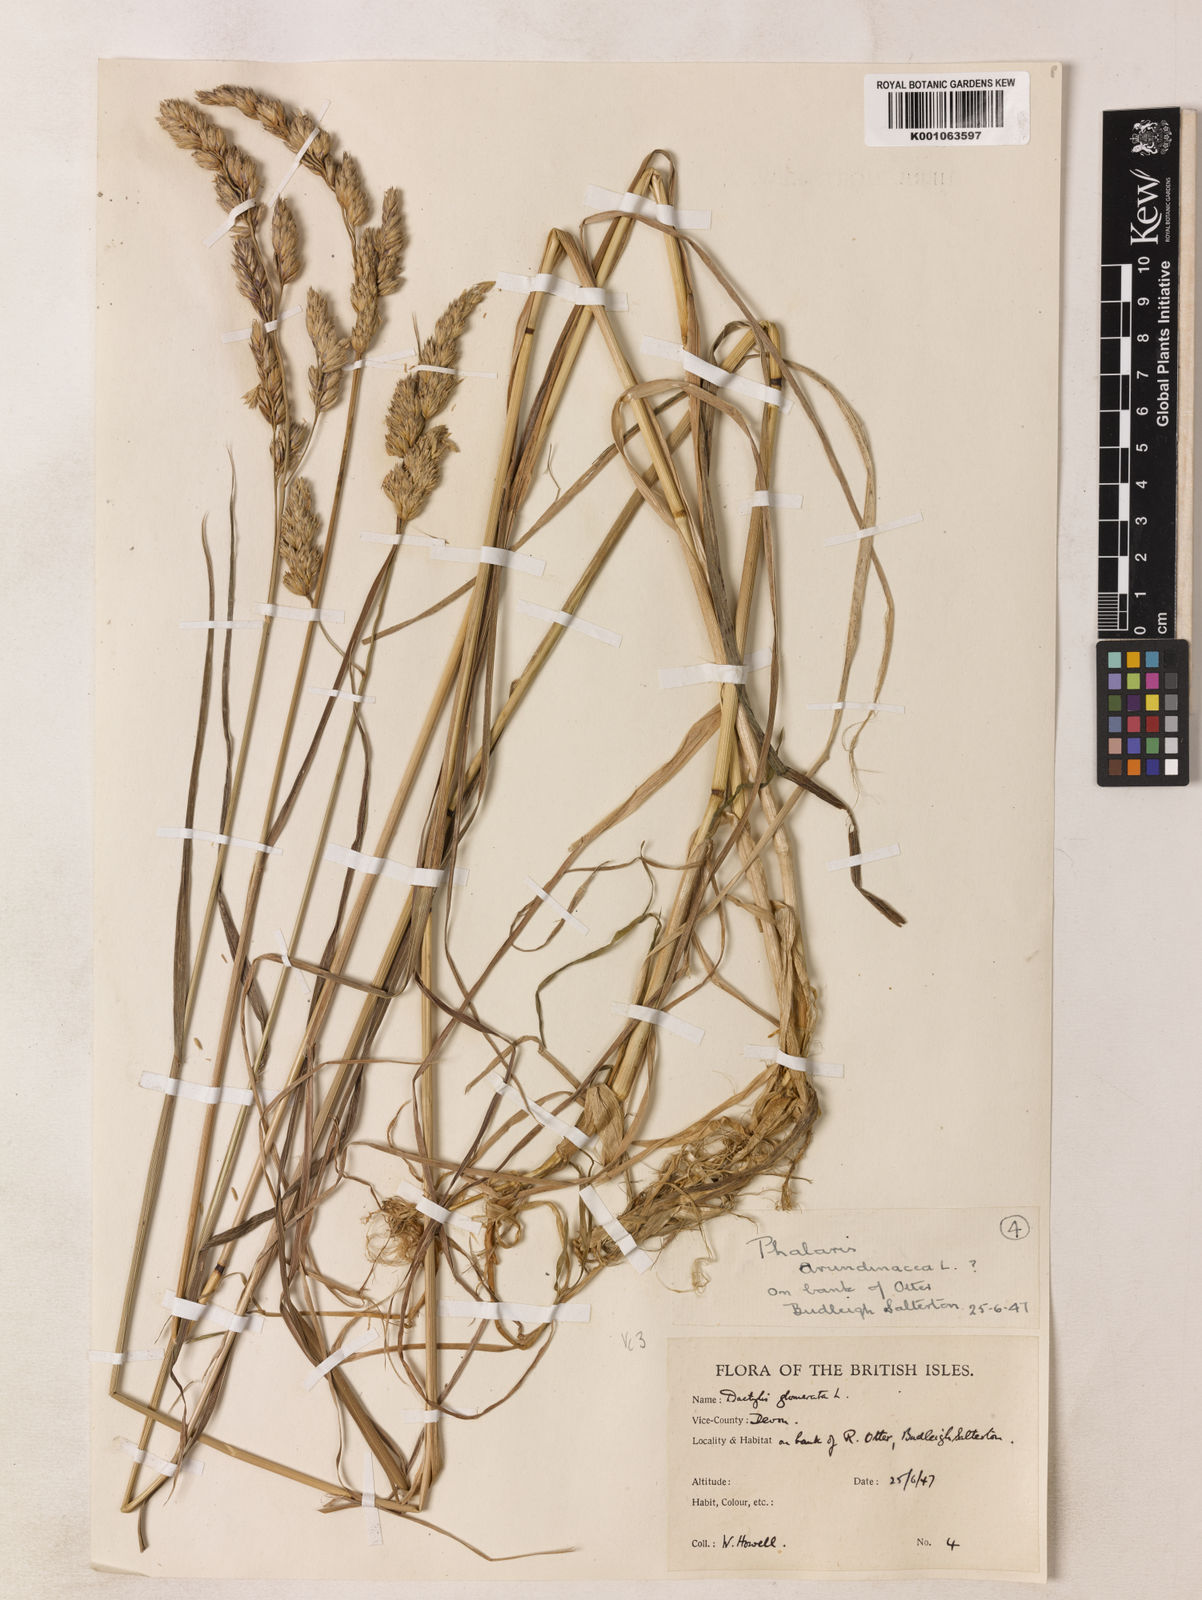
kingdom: Plantae
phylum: Tracheophyta
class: Liliopsida
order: Poales
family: Poaceae
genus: Dactylis
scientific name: Dactylis glomerata
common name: Orchardgrass
